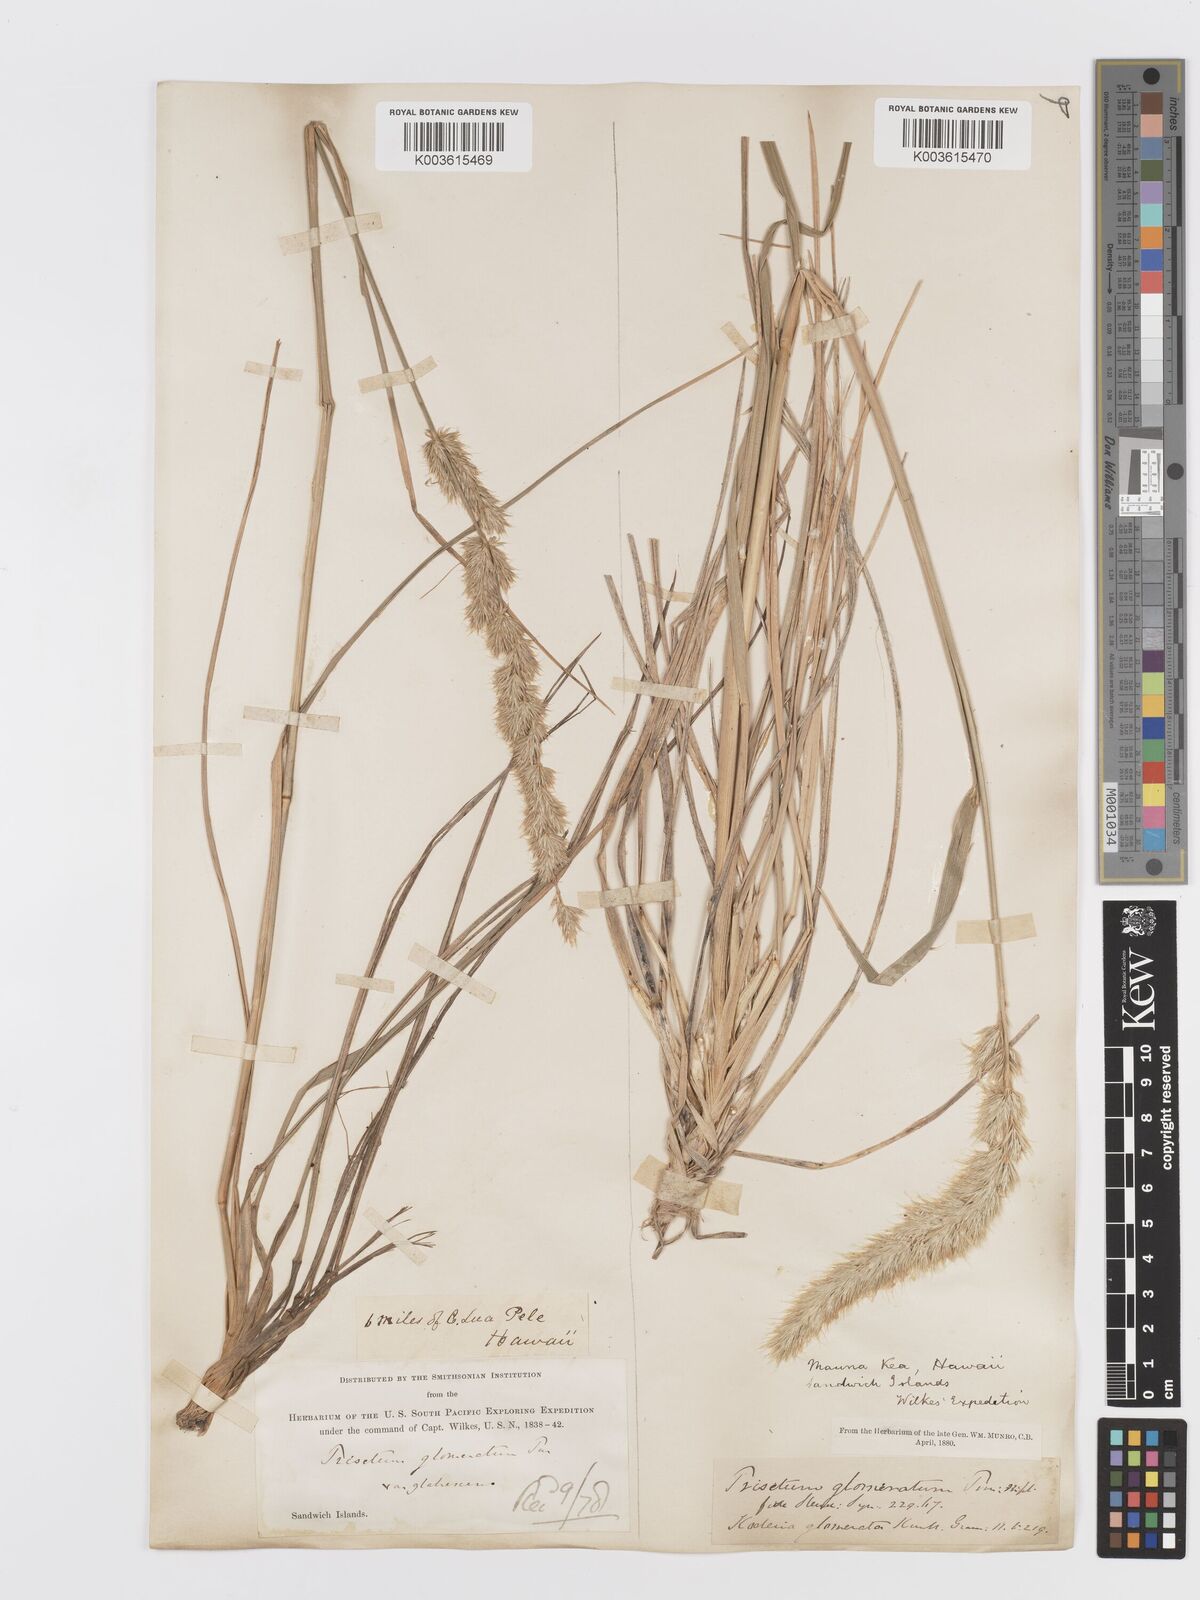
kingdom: Plantae
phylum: Tracheophyta
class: Liliopsida
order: Poales
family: Poaceae
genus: Trisetum
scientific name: Trisetum glomeratum
